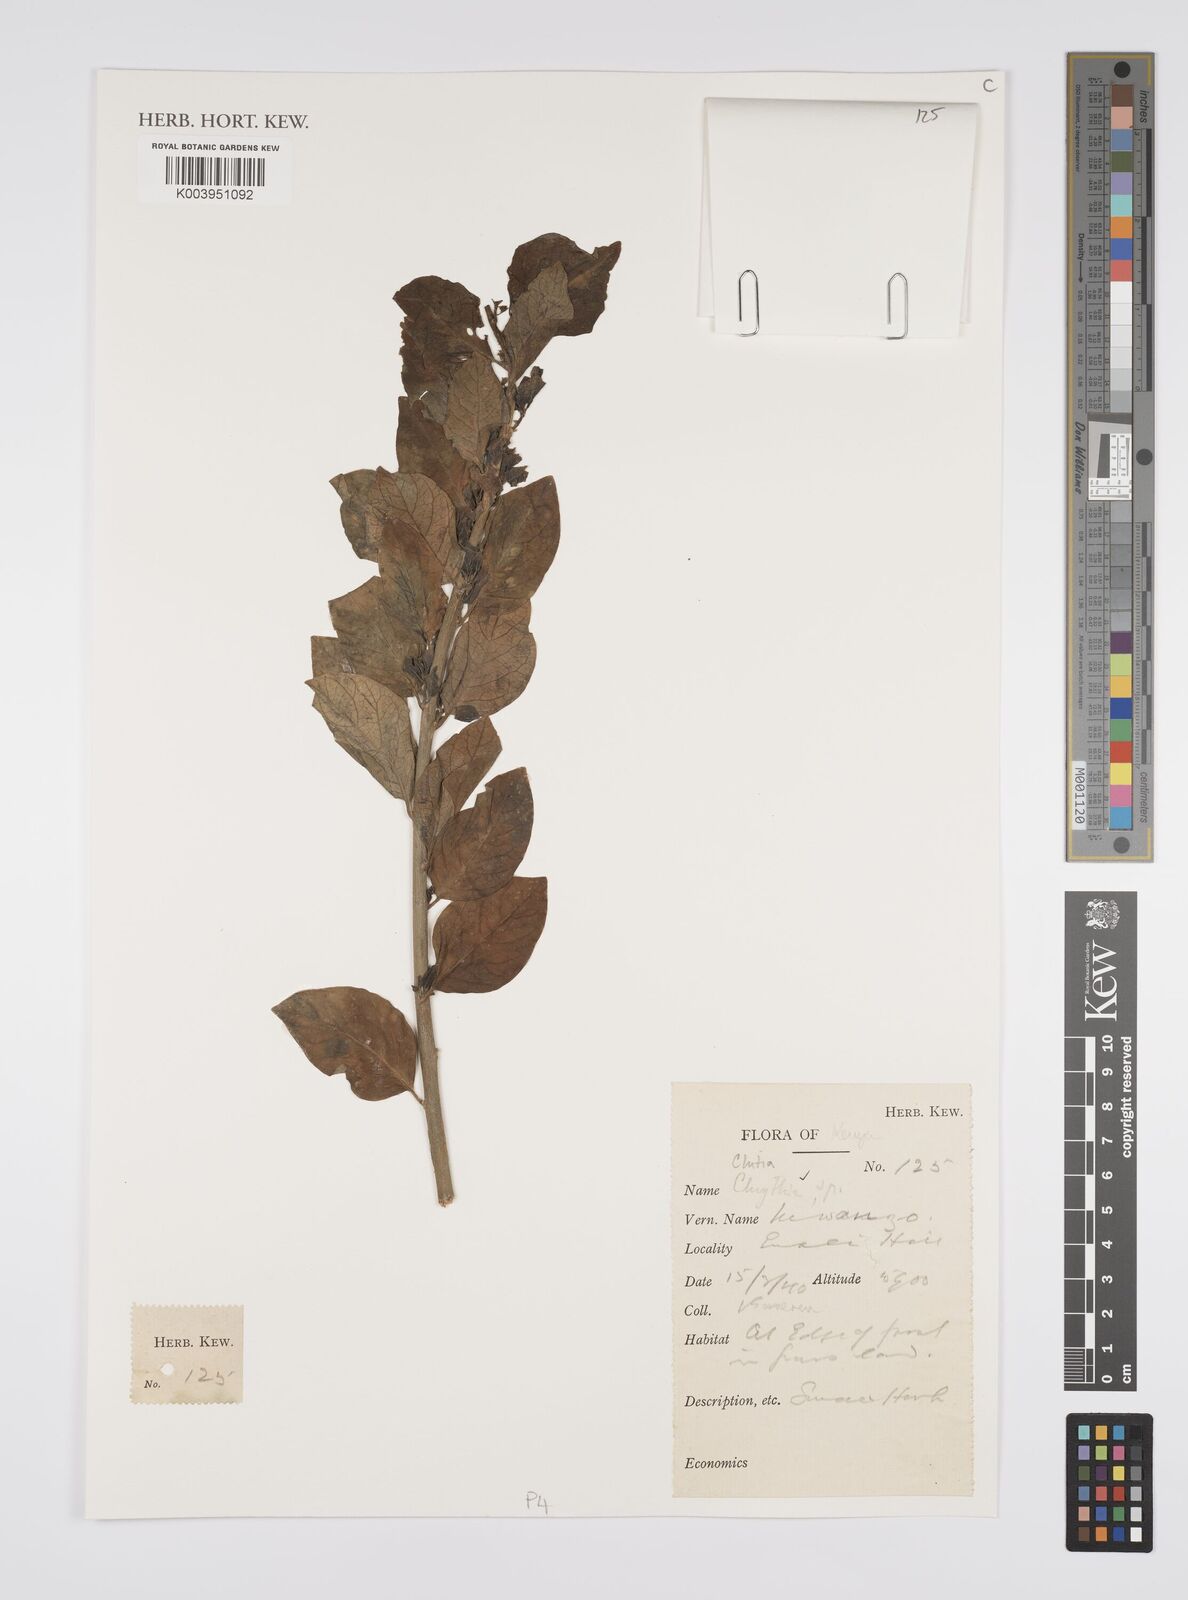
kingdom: Plantae
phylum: Tracheophyta
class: Magnoliopsida
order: Malpighiales
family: Peraceae
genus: Clutia
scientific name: Clutia
